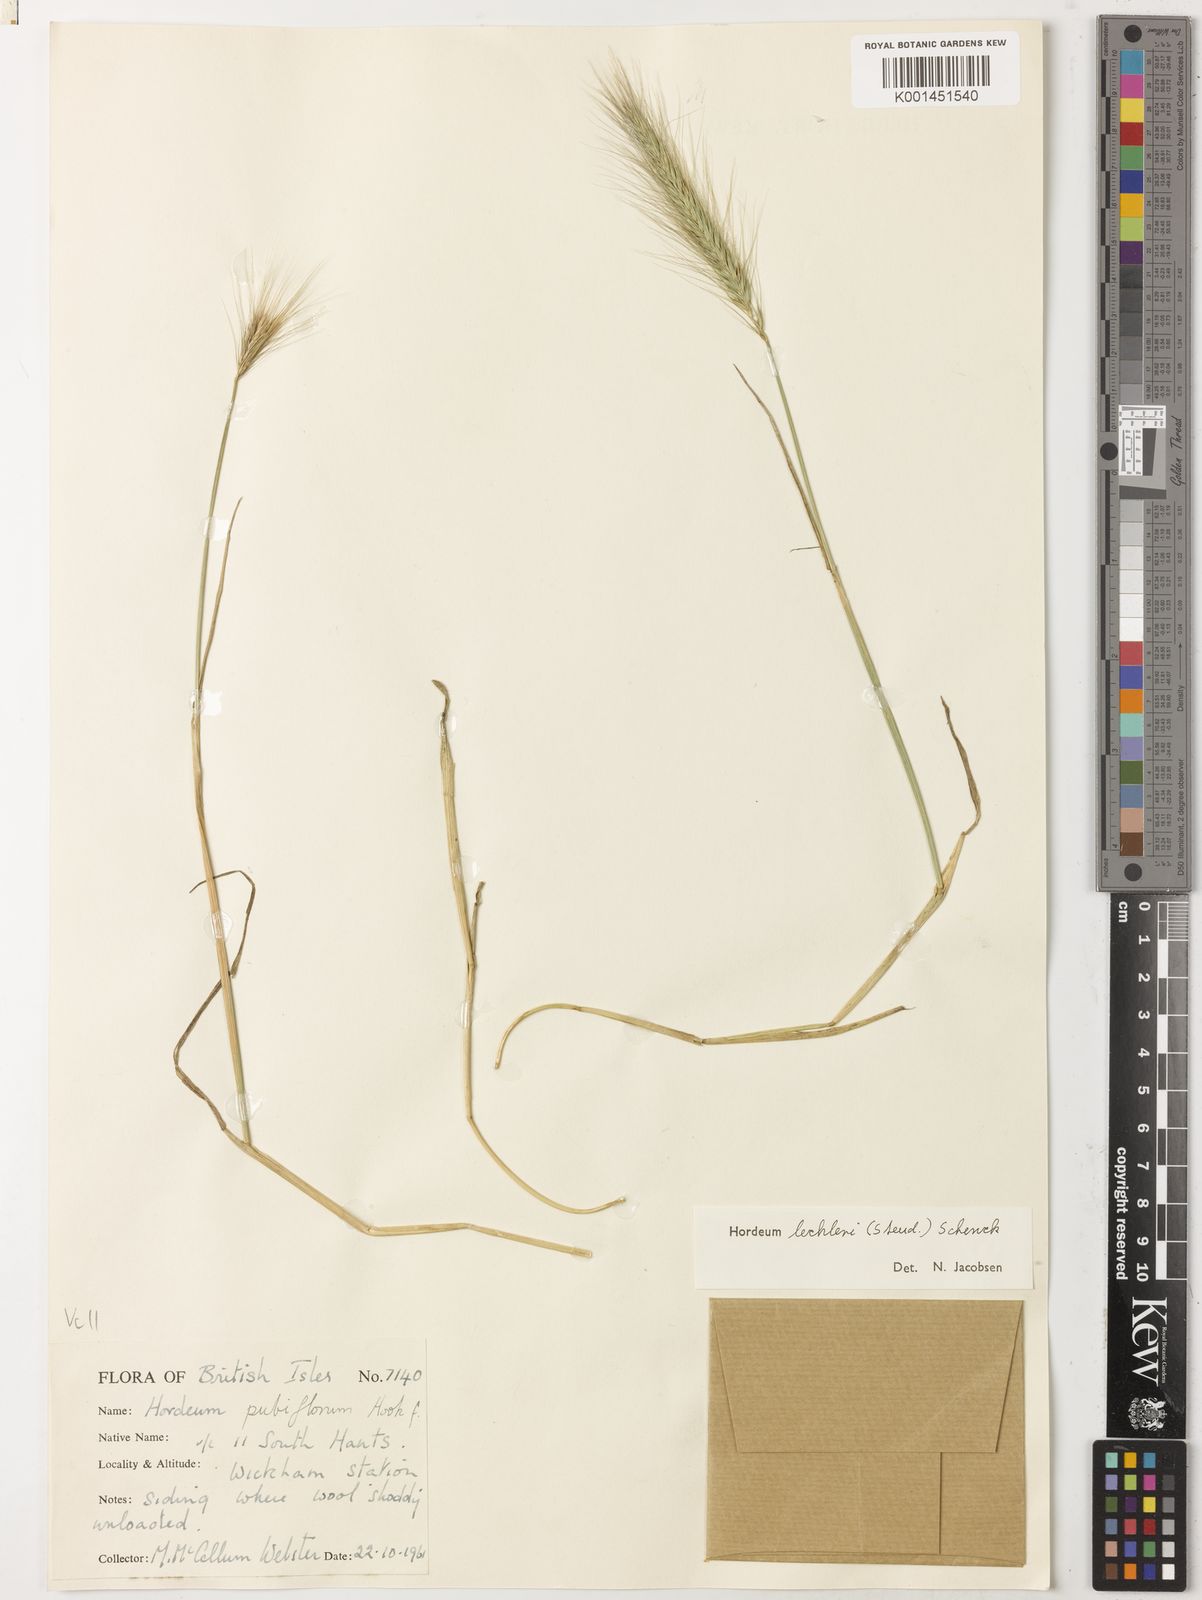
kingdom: Plantae
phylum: Tracheophyta
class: Liliopsida
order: Poales
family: Poaceae
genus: Hordeum
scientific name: Hordeum lechleri
